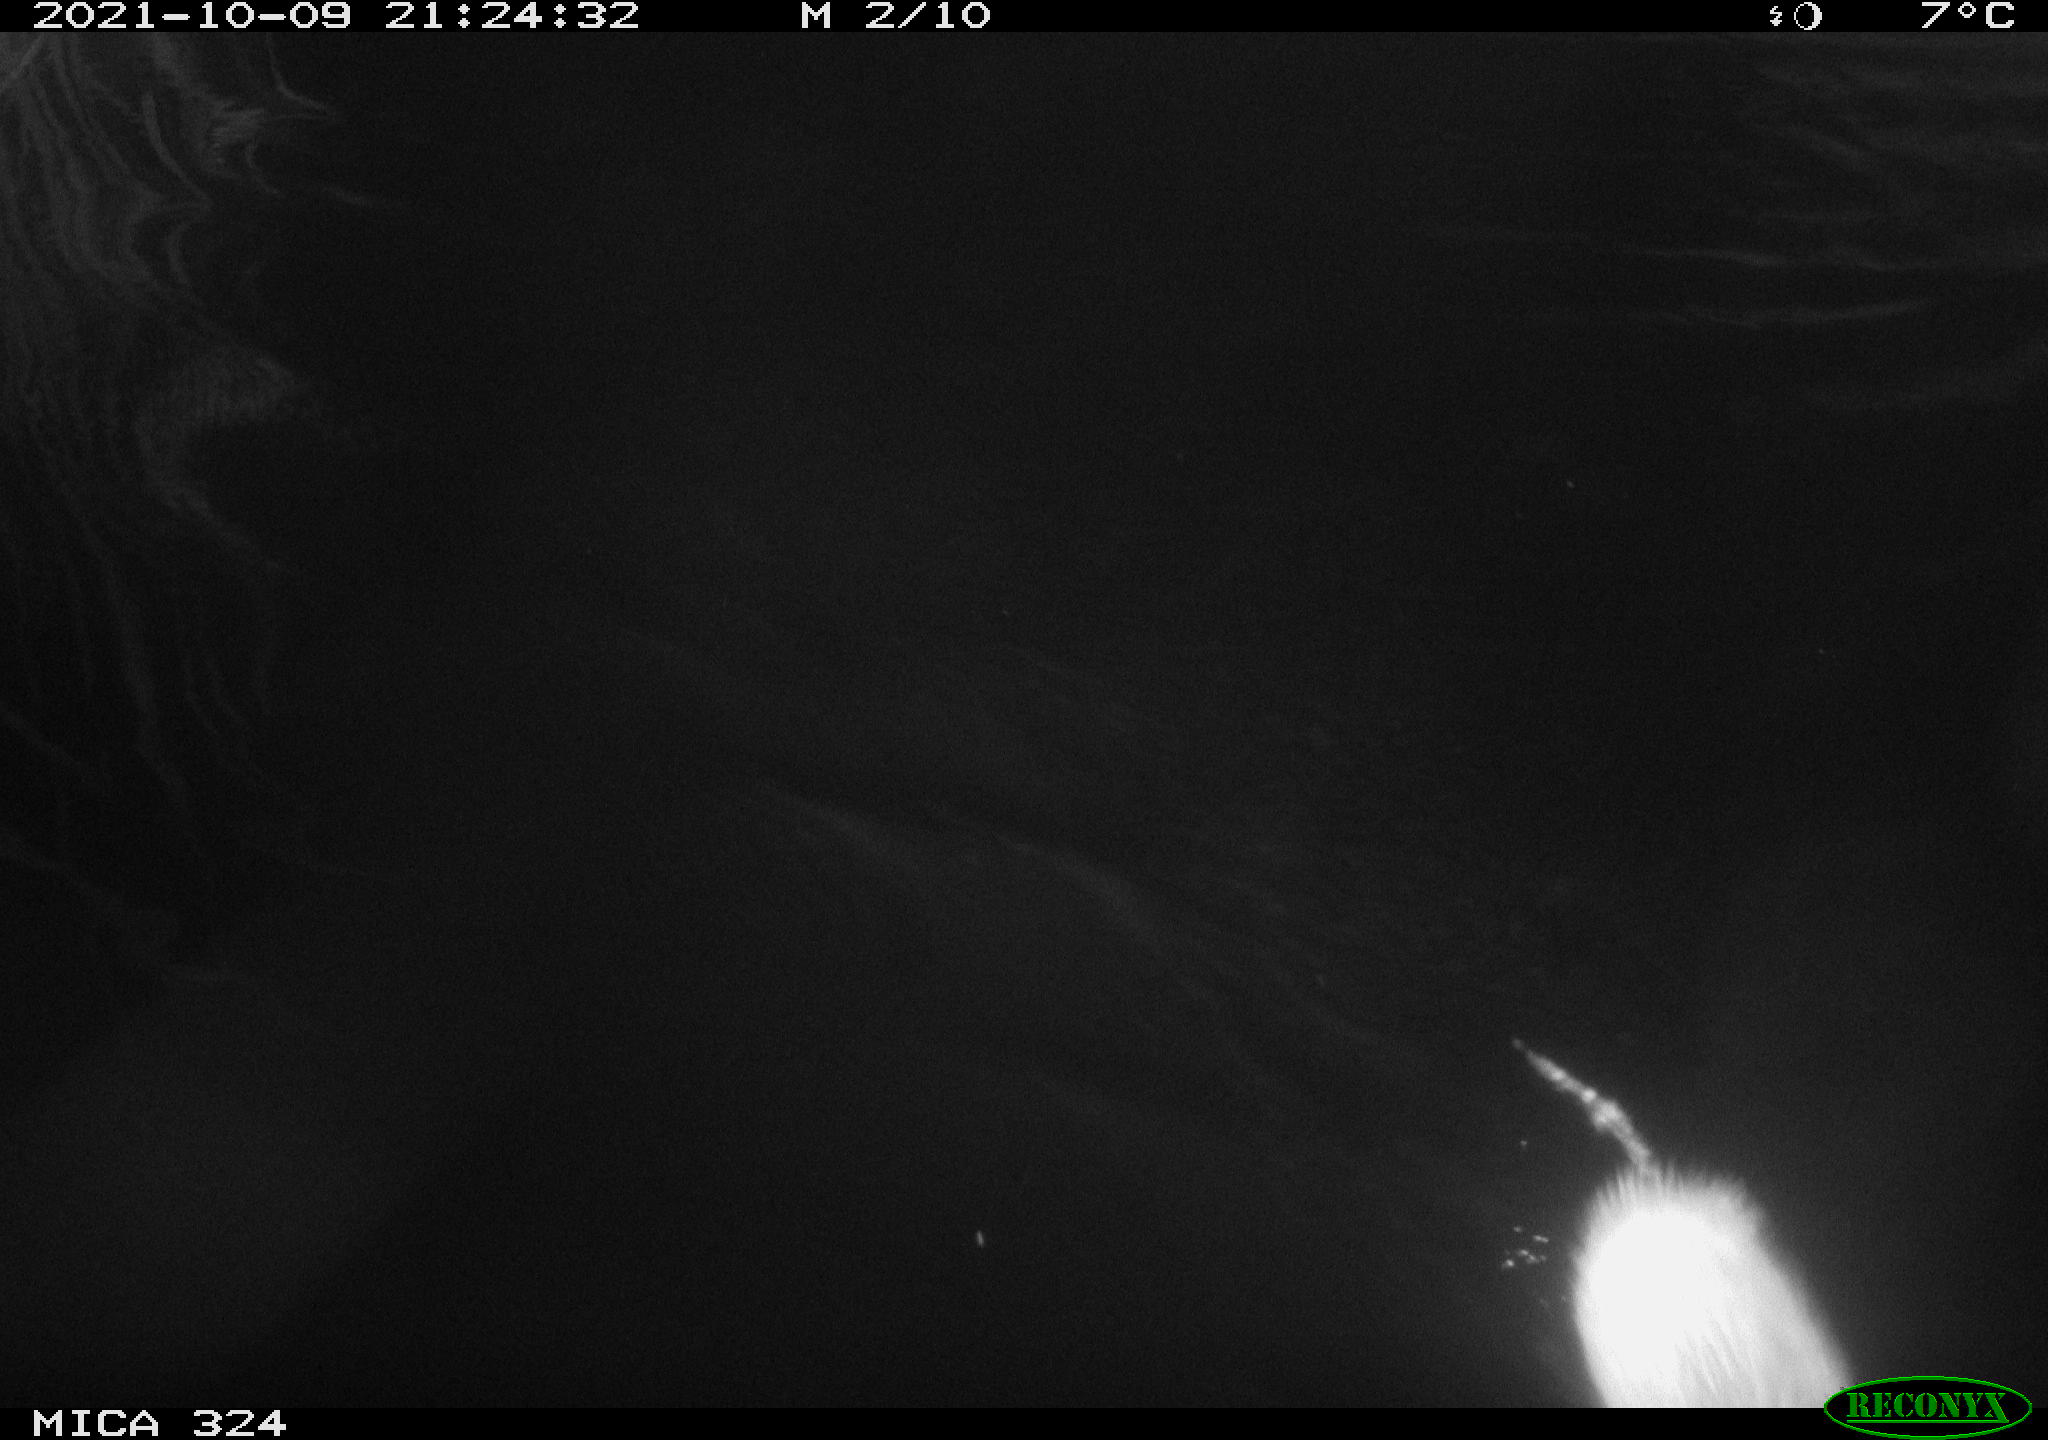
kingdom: Animalia
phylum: Chordata
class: Mammalia
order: Rodentia
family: Cricetidae
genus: Ondatra
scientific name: Ondatra zibethicus
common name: Muskrat
